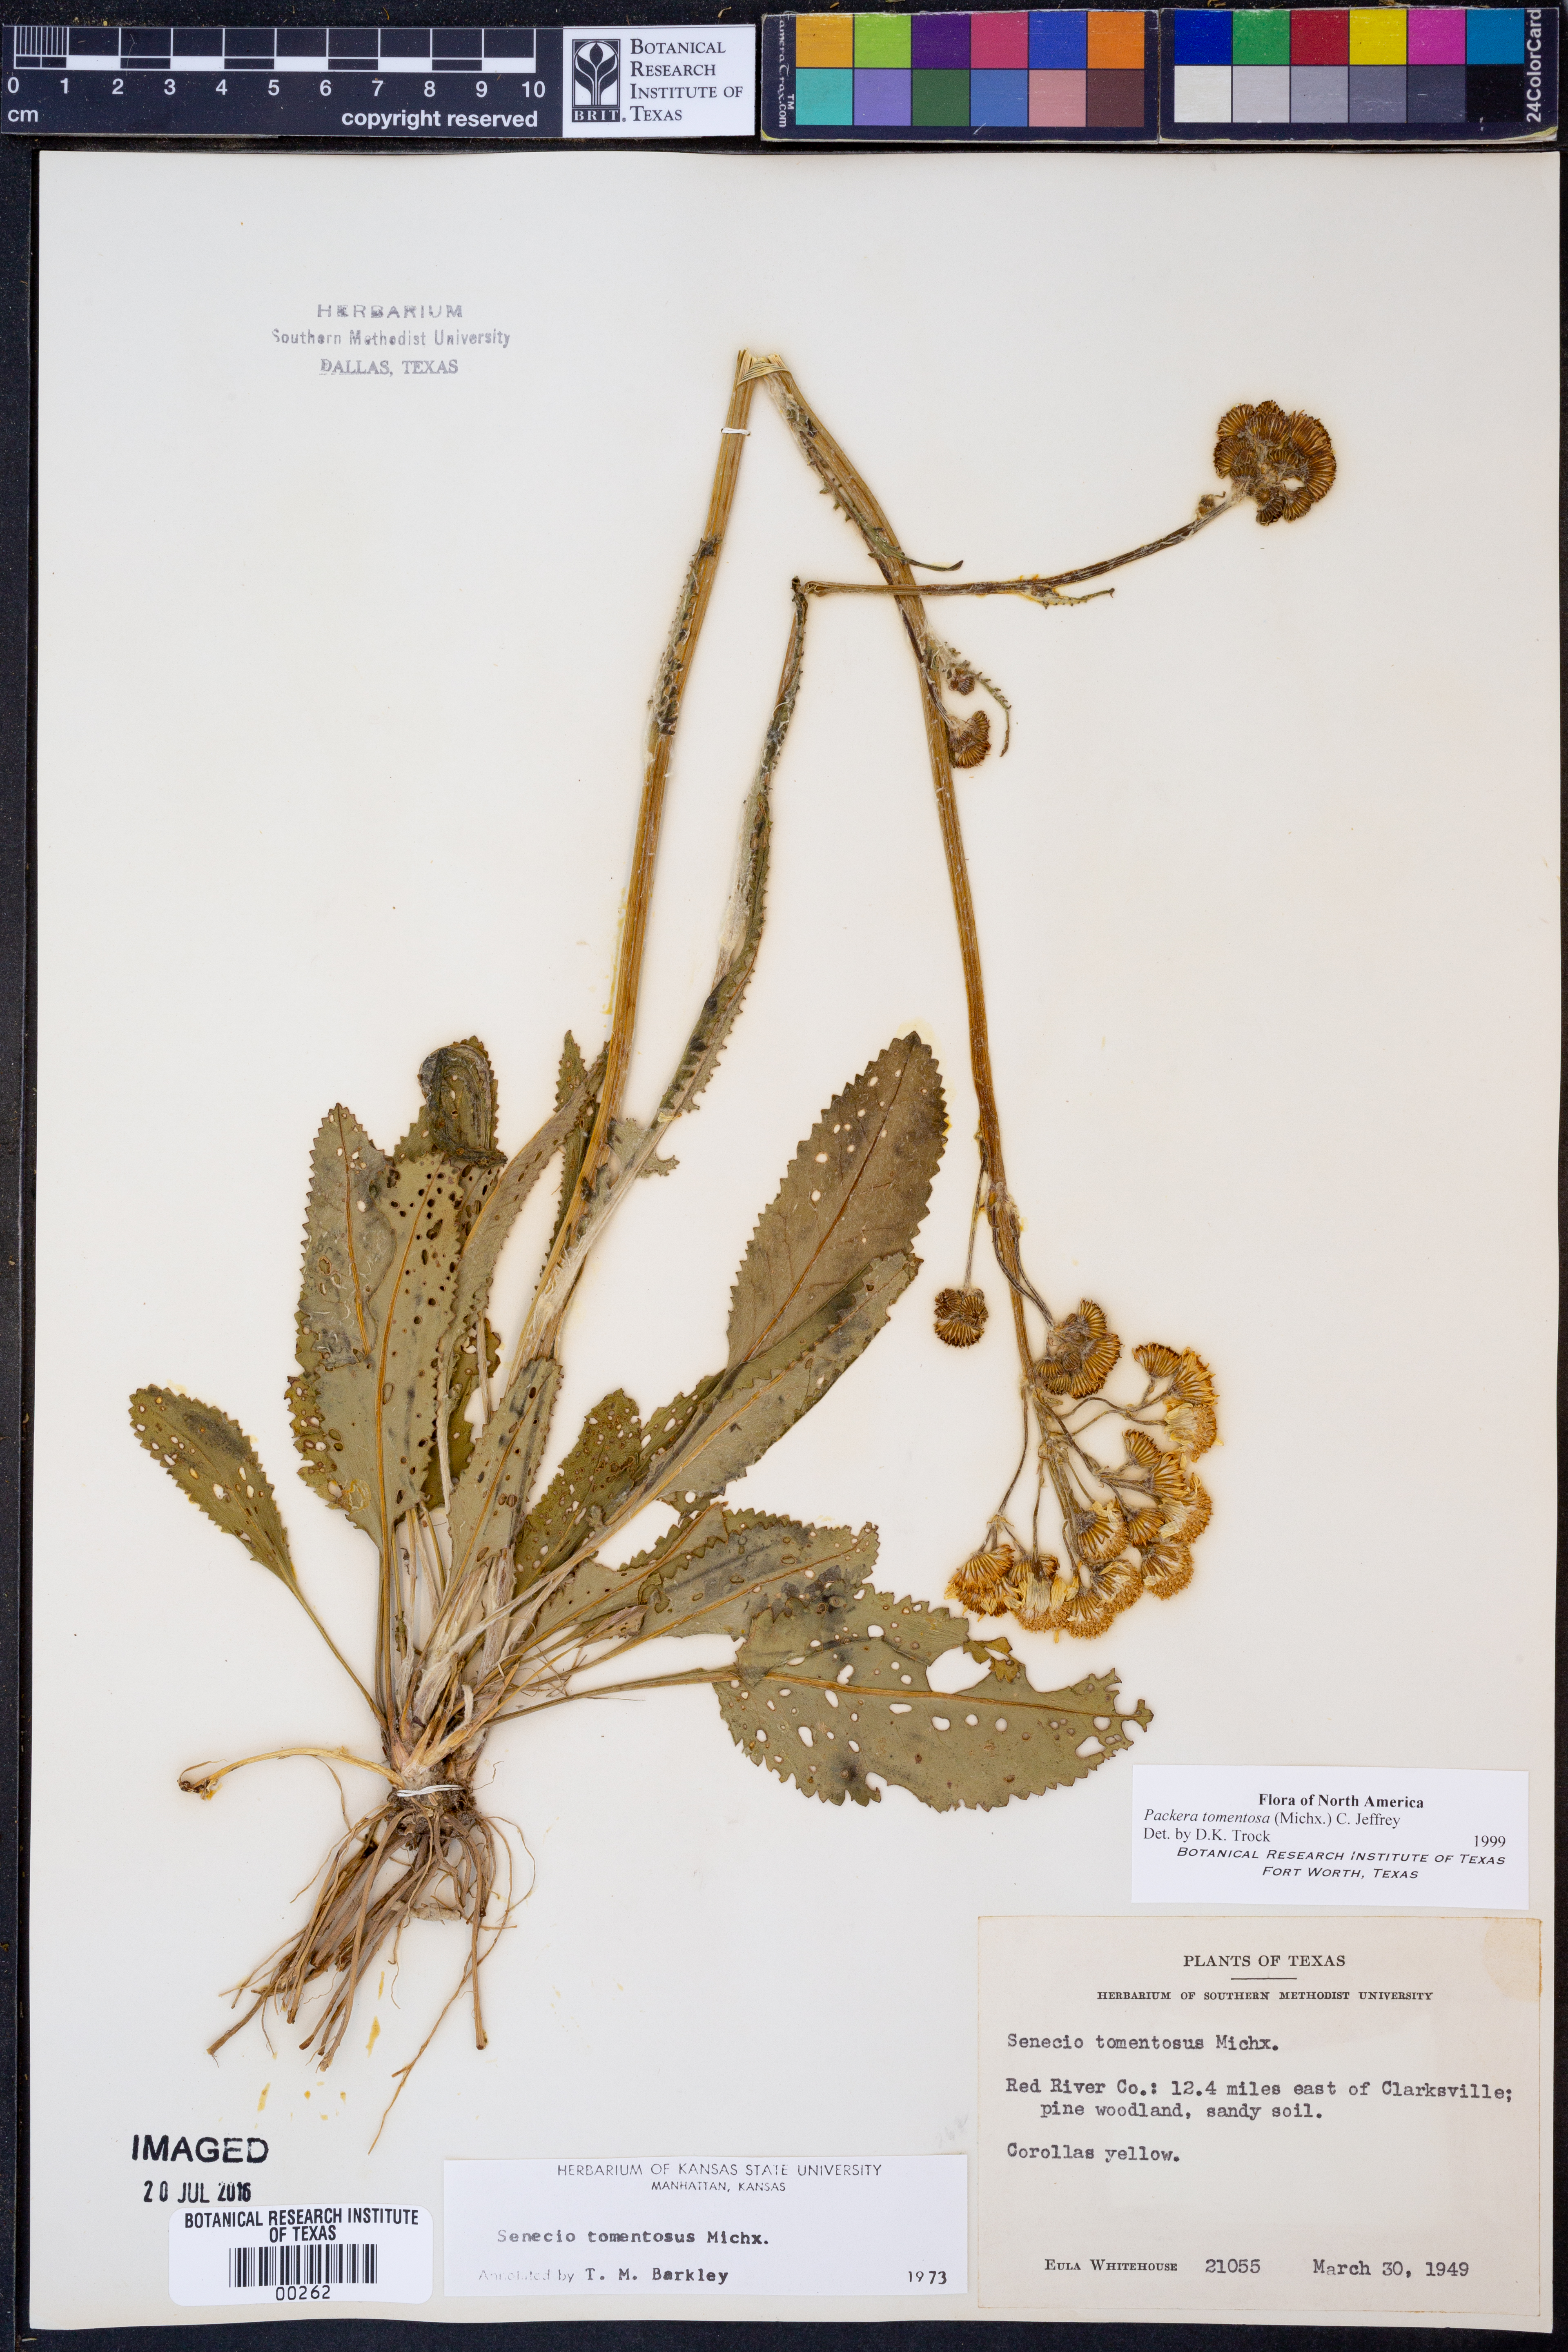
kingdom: Plantae
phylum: Tracheophyta
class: Magnoliopsida
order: Asterales
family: Asteraceae
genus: Packera
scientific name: Packera dubia
